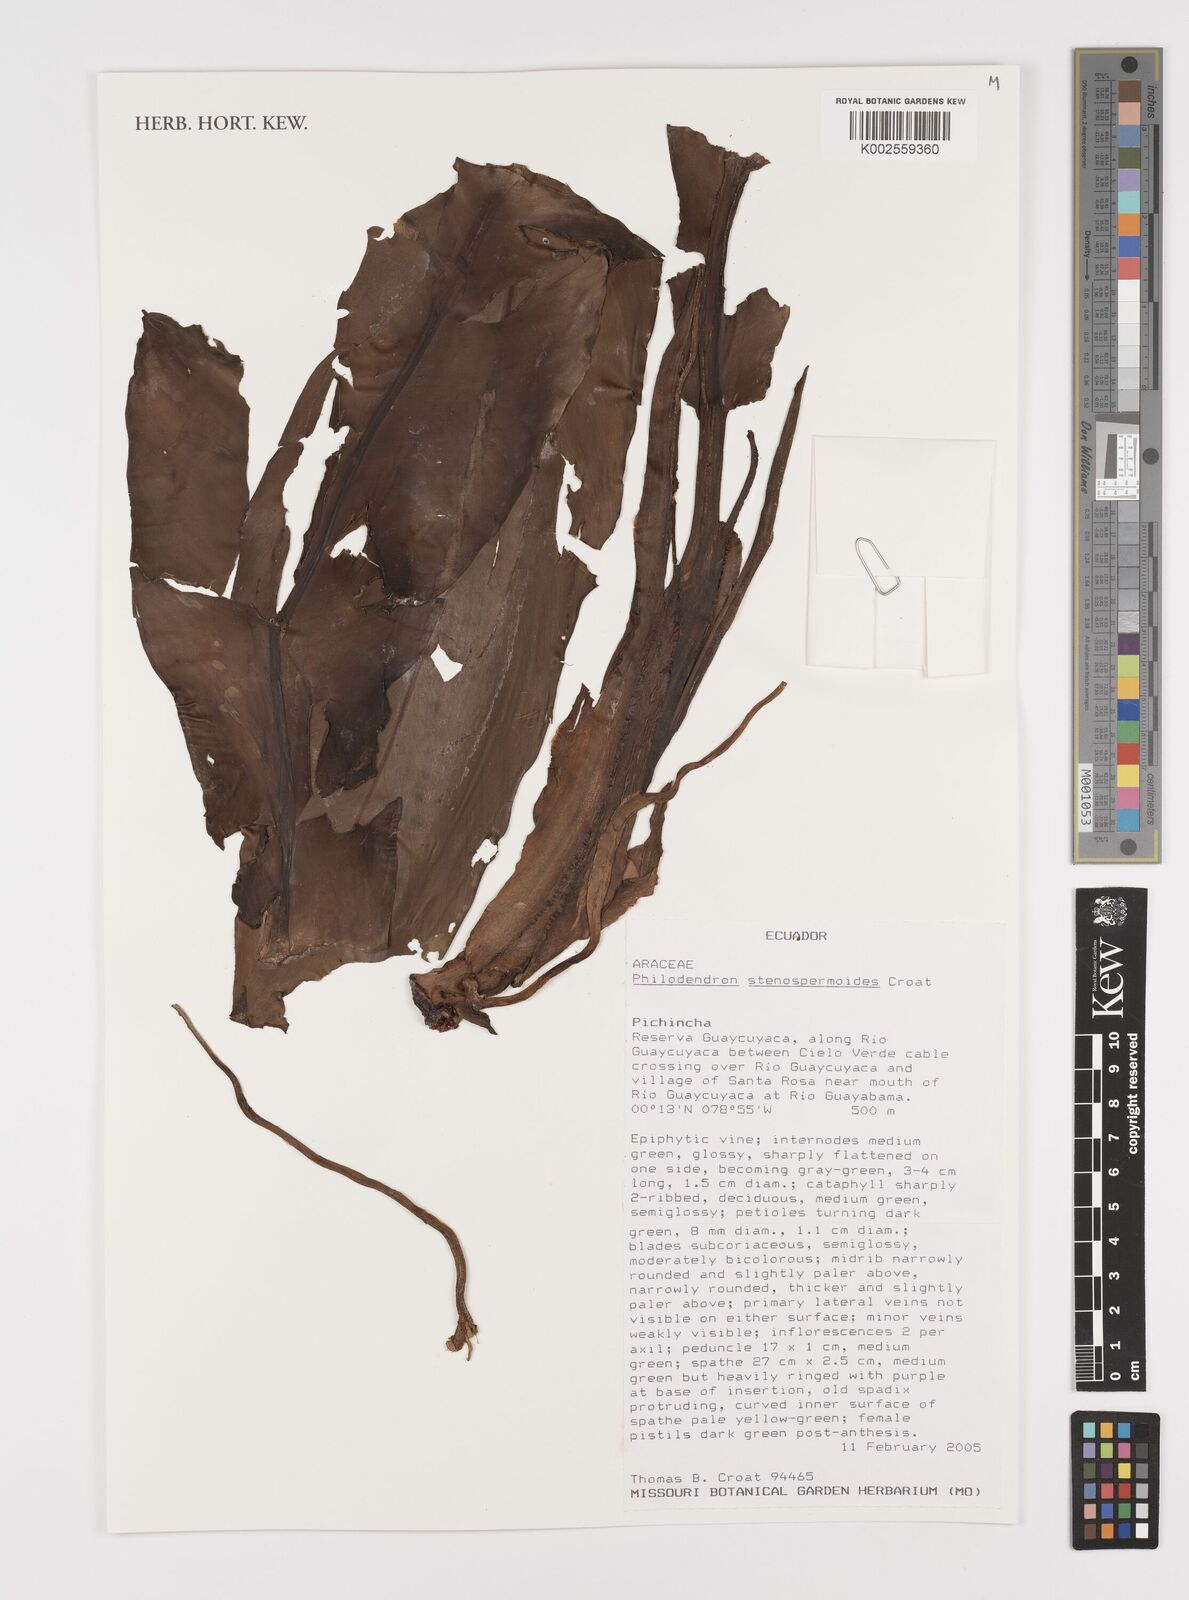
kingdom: Plantae
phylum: Tracheophyta
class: Liliopsida
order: Alismatales
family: Araceae
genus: Philodendron
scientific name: Philodendron
